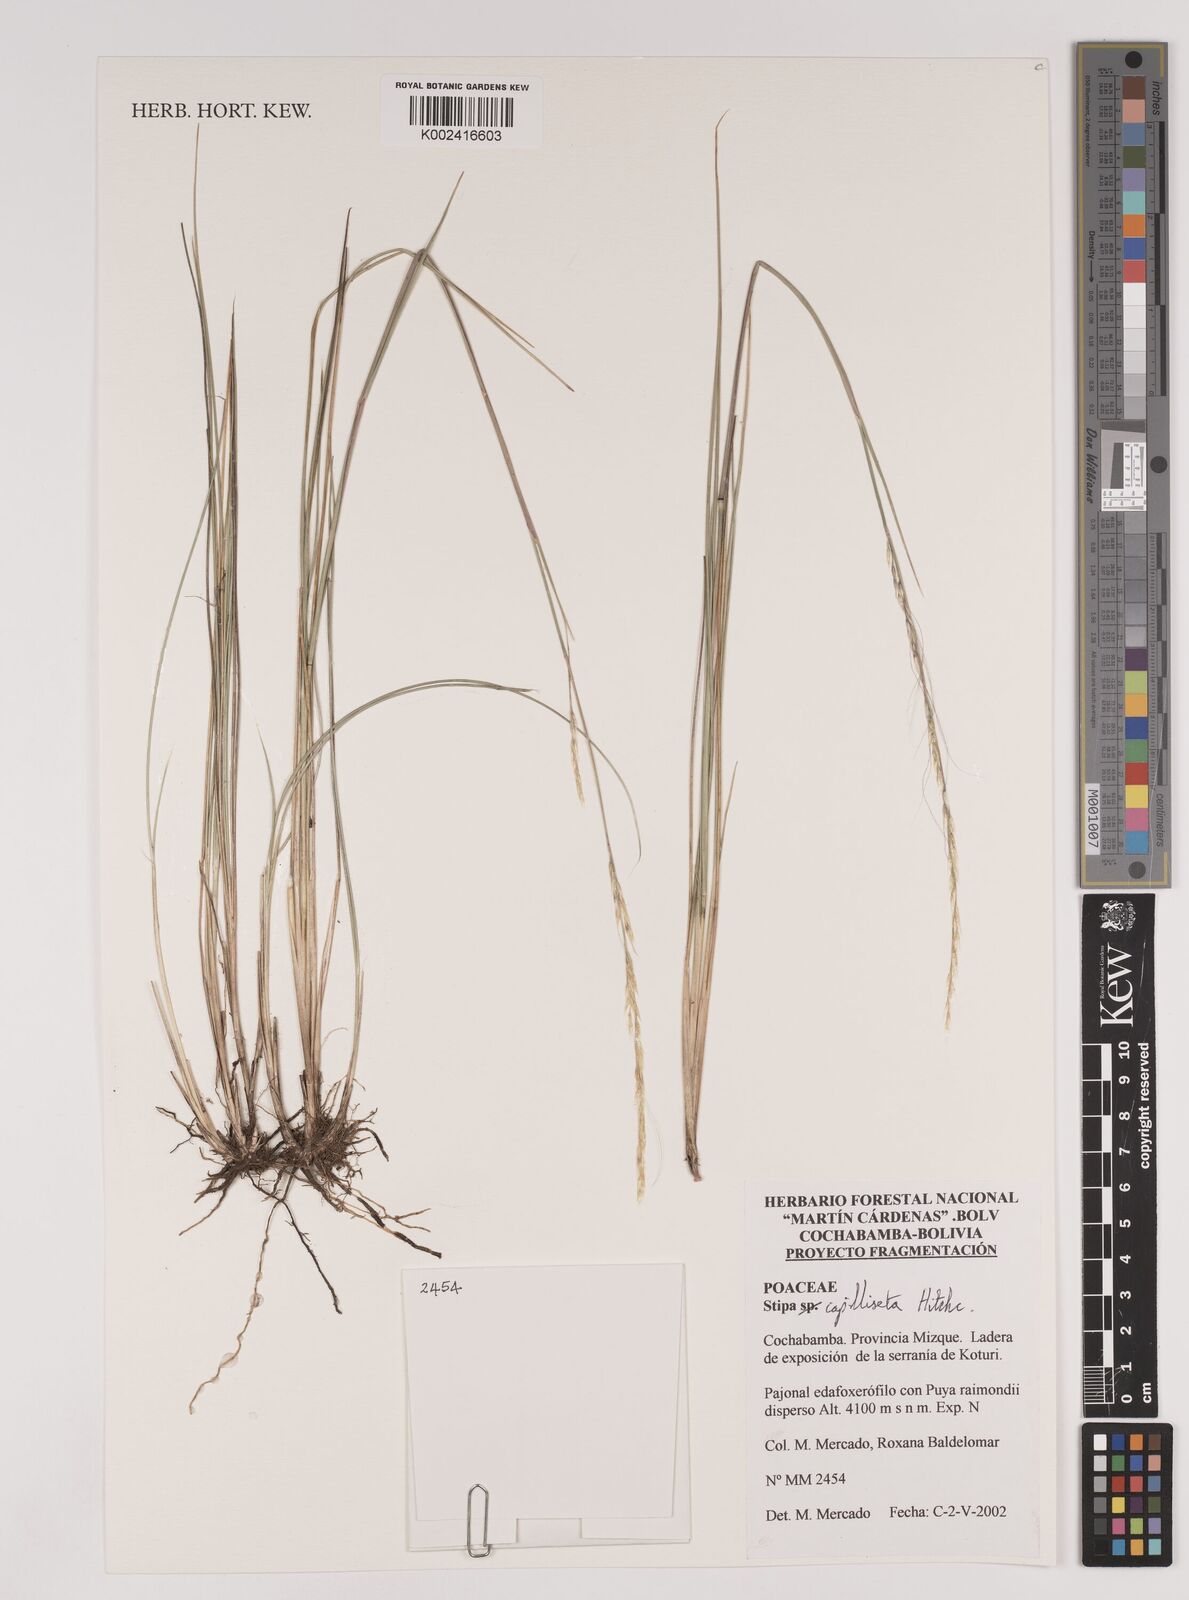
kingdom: Plantae
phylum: Tracheophyta
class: Liliopsida
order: Poales
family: Poaceae
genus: Jarava
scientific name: Jarava leptostachya
